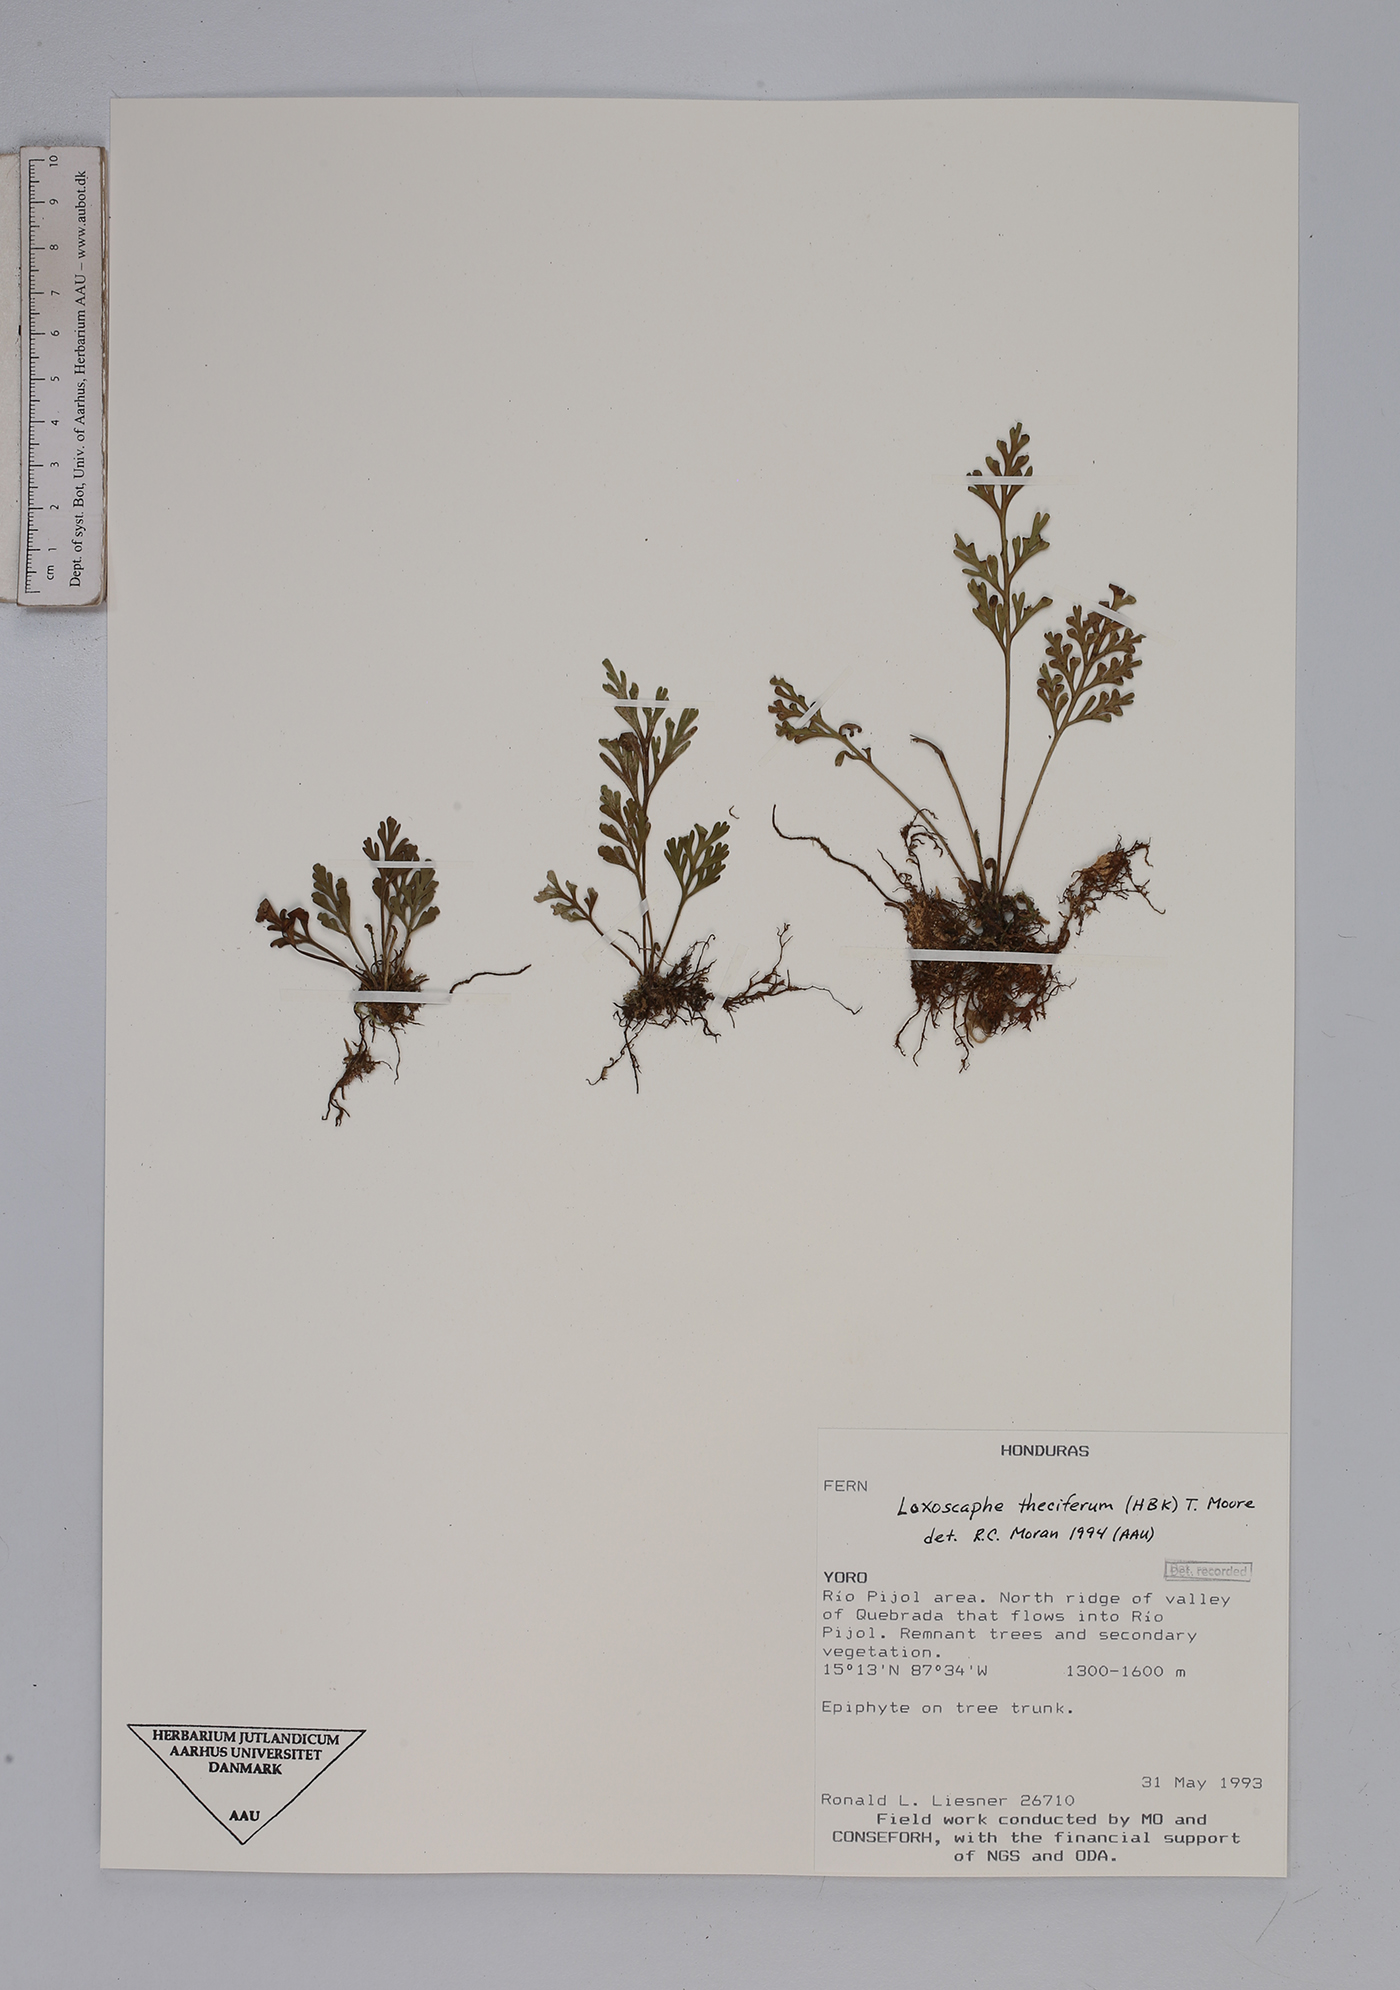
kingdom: Plantae
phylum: Tracheophyta
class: Polypodiopsida
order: Polypodiales
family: Aspleniaceae
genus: Asplenium
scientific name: Asplenium theciferum
